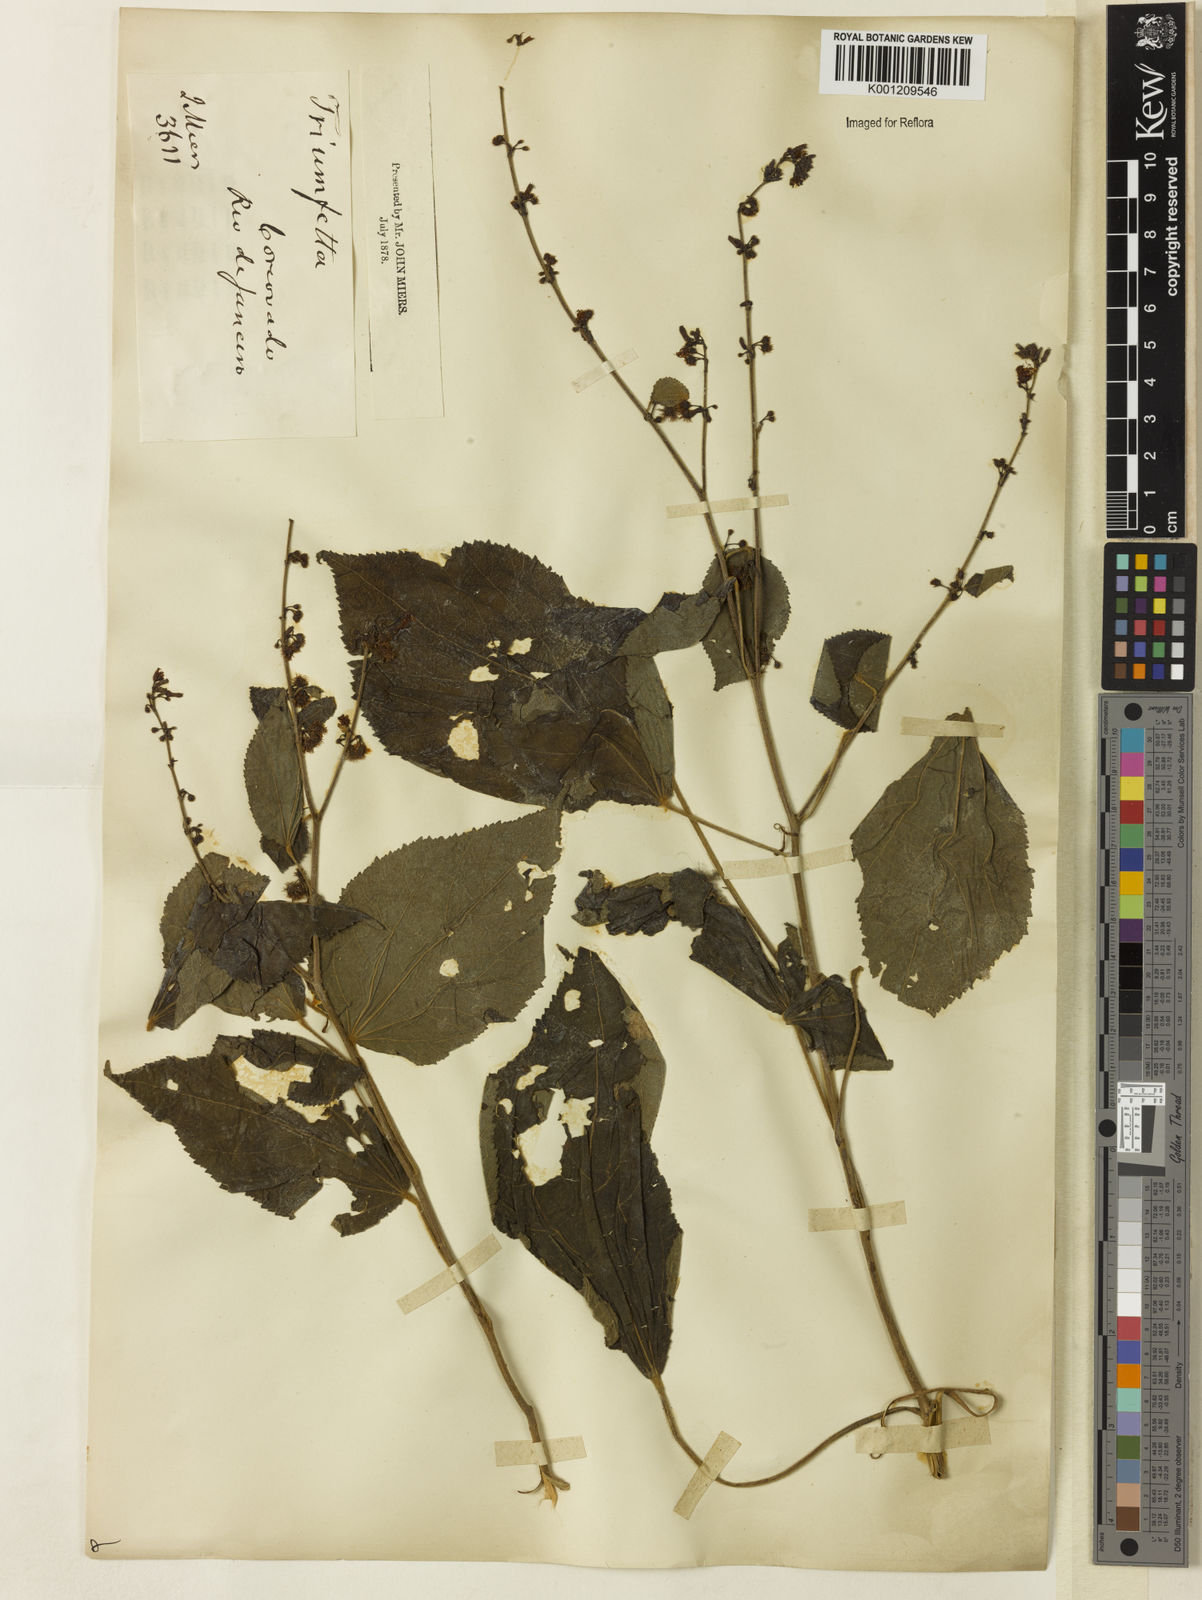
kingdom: Plantae
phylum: Tracheophyta
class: Magnoliopsida
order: Malvales
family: Malvaceae
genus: Triumfetta
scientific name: Triumfetta spicata
